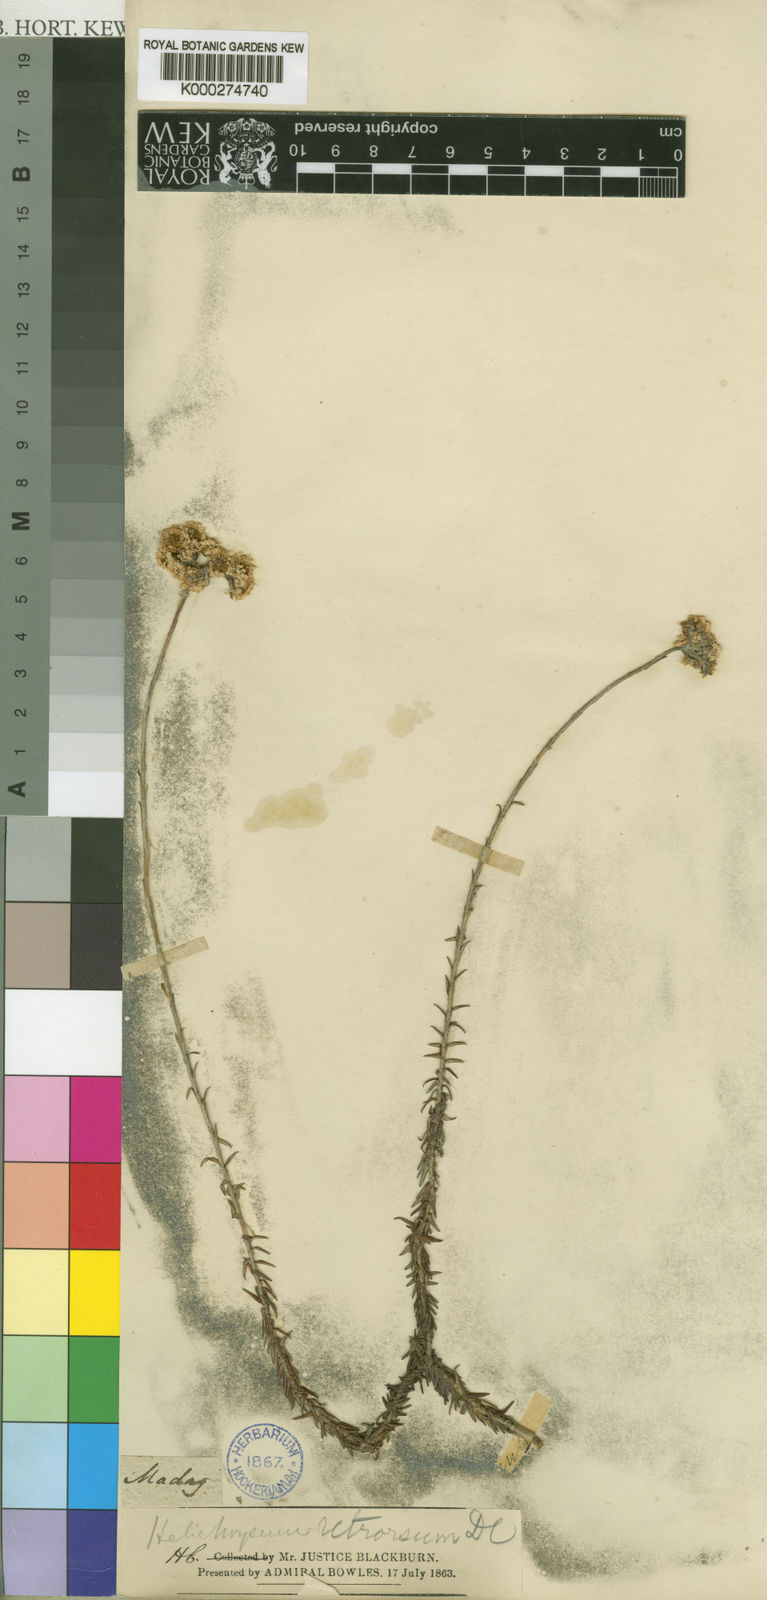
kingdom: Plantae
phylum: Tracheophyta
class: Magnoliopsida
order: Asterales
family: Asteraceae
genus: Helichrysum
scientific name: Helichrysum retrorsum
